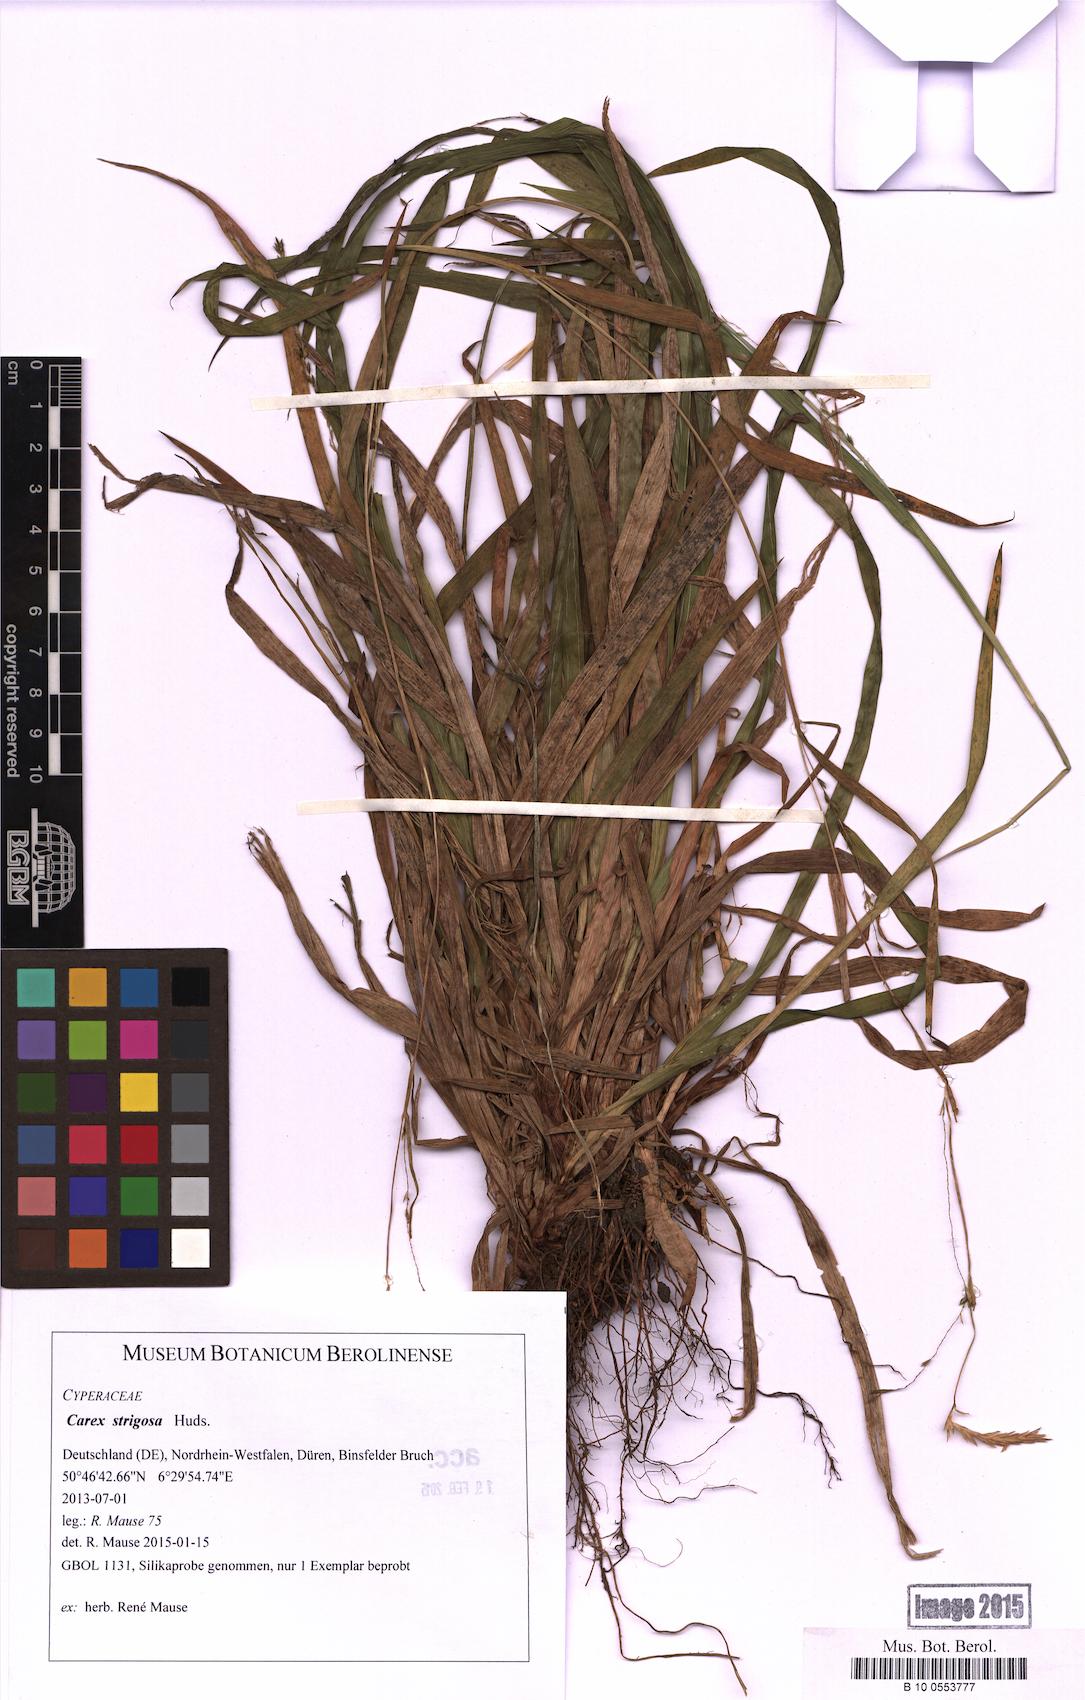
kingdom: Plantae
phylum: Tracheophyta
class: Liliopsida
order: Poales
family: Cyperaceae
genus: Carex
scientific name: Carex strigosa
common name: Thin-spiked wood-sedge
